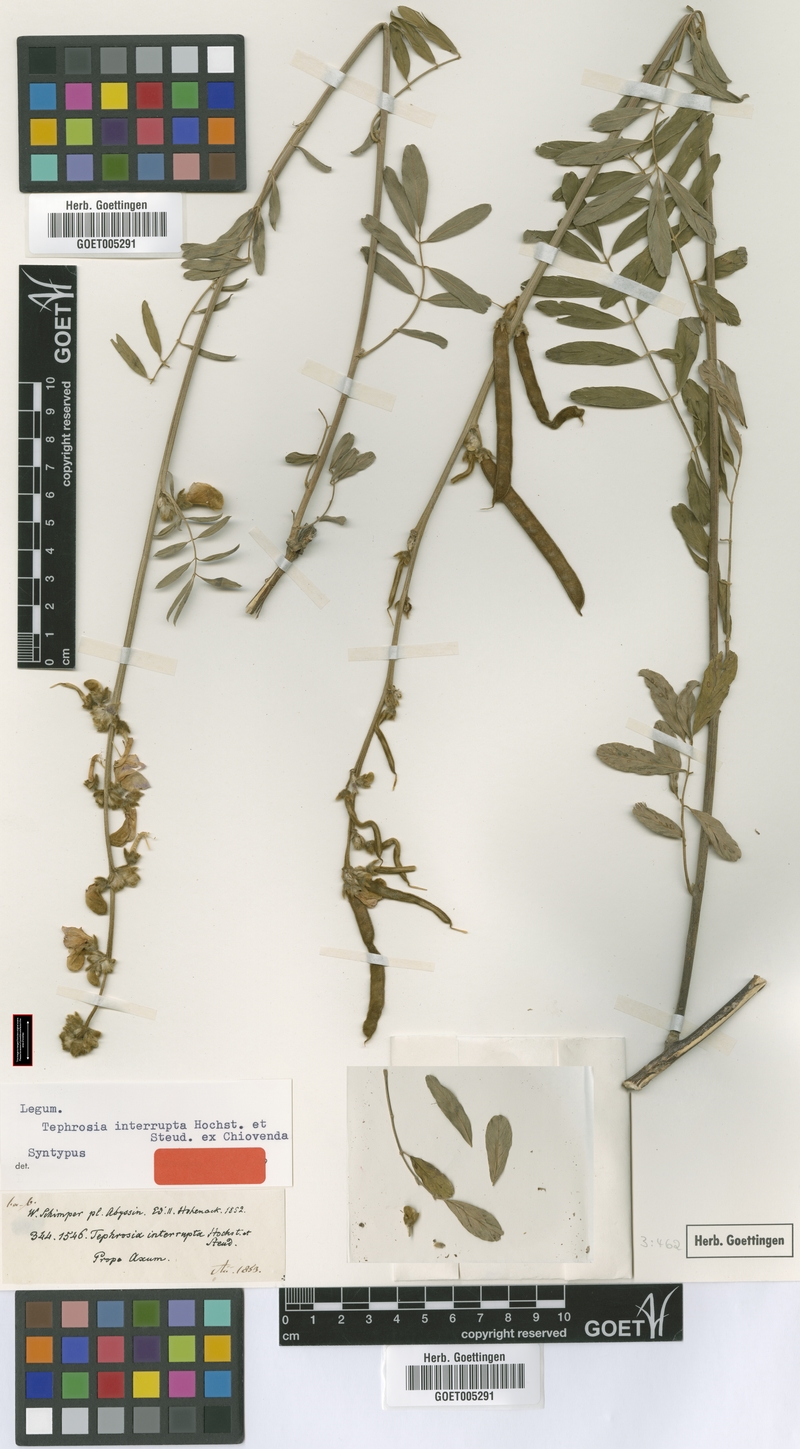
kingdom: Plantae
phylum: Tracheophyta
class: Magnoliopsida
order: Fabales
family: Fabaceae
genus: Tephrosia
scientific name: Tephrosia interrupta
